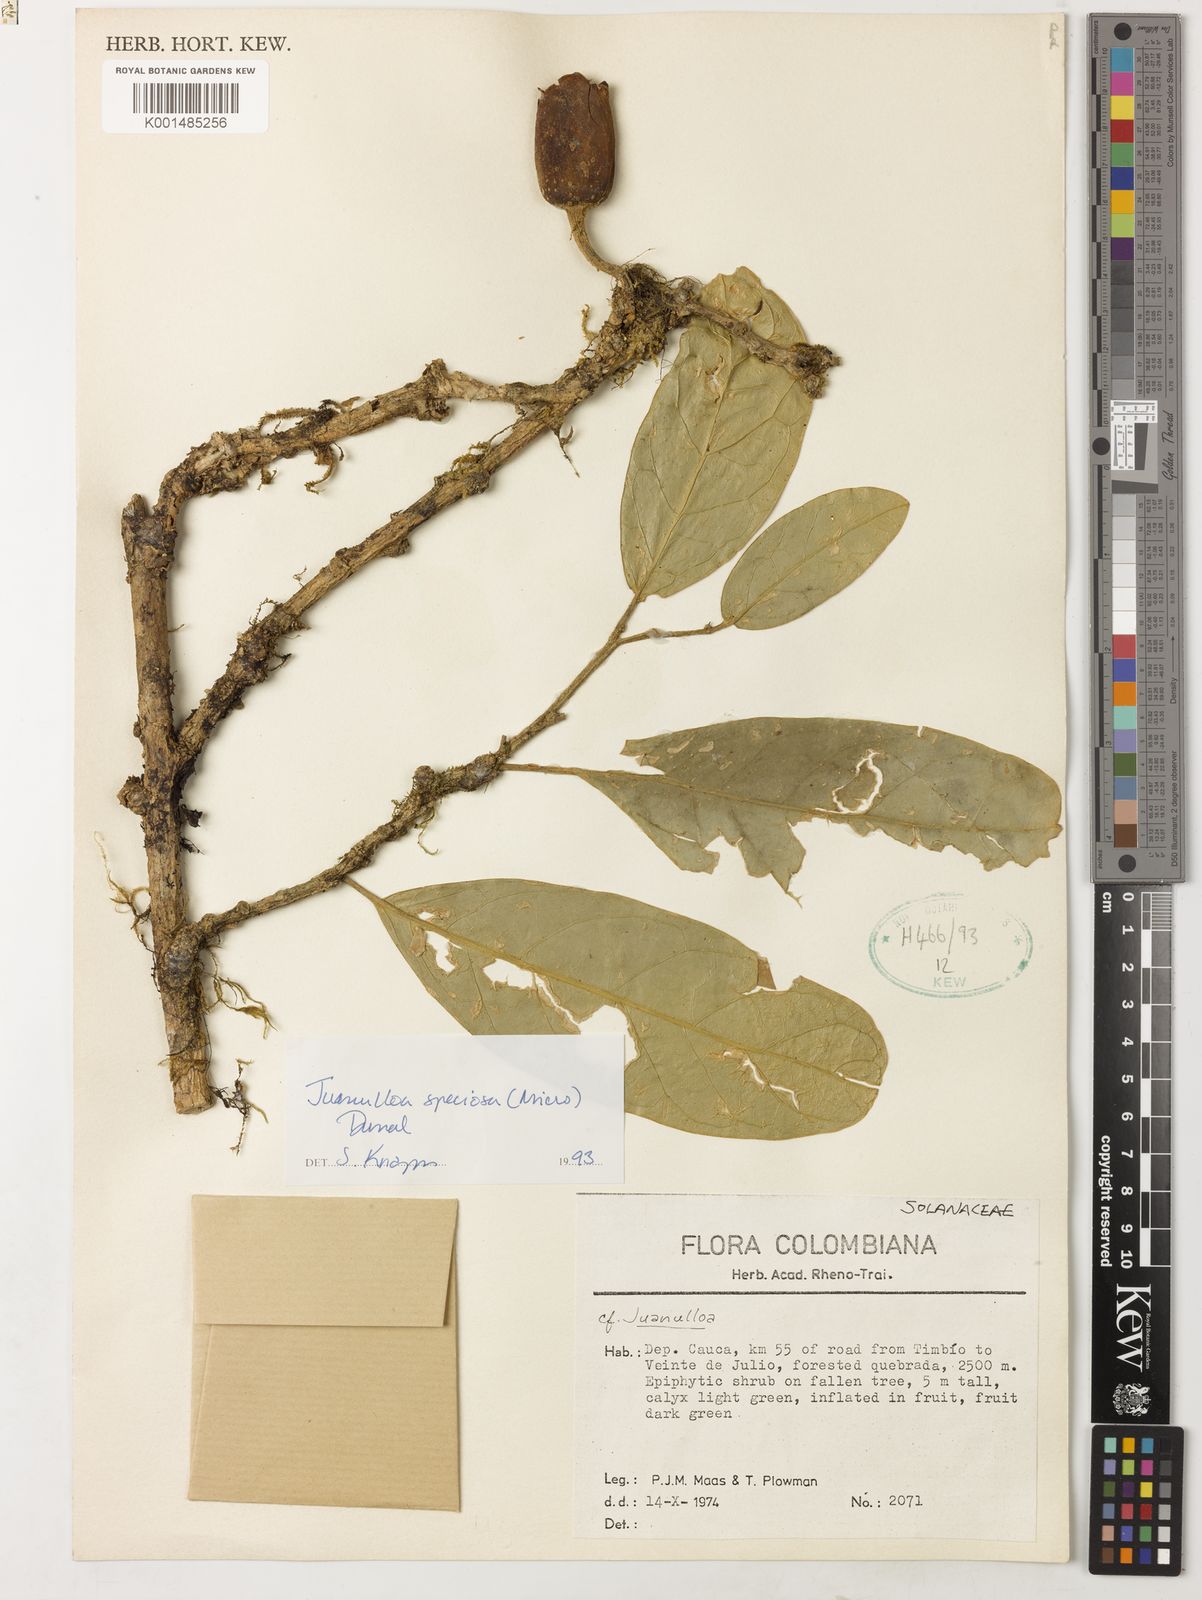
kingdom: Plantae
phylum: Tracheophyta
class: Magnoliopsida
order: Solanales
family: Solanaceae
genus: Juanulloa
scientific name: Juanulloa speciosa
